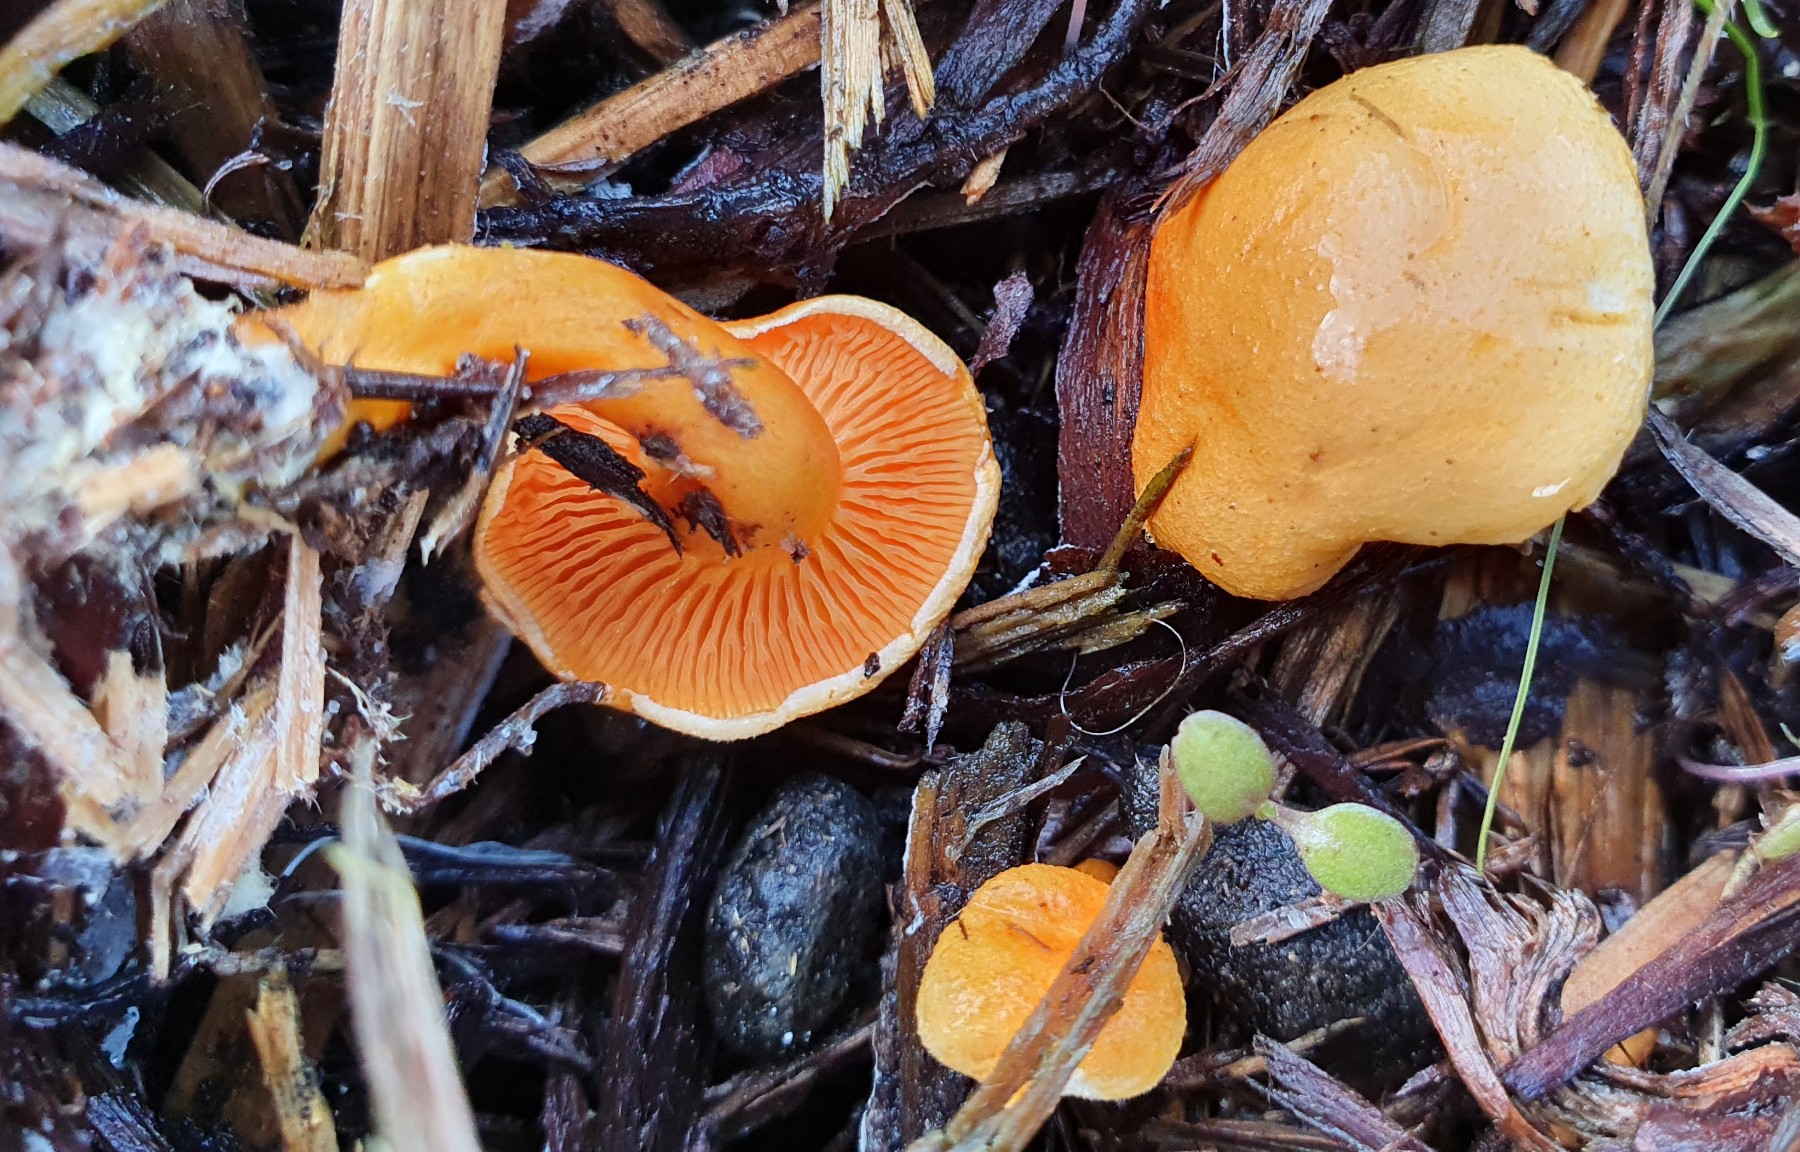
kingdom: Fungi
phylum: Basidiomycota
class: Agaricomycetes
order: Boletales
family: Hygrophoropsidaceae
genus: Hygrophoropsis
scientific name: Hygrophoropsis aurantiaca
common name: almindelig orangekantarel
